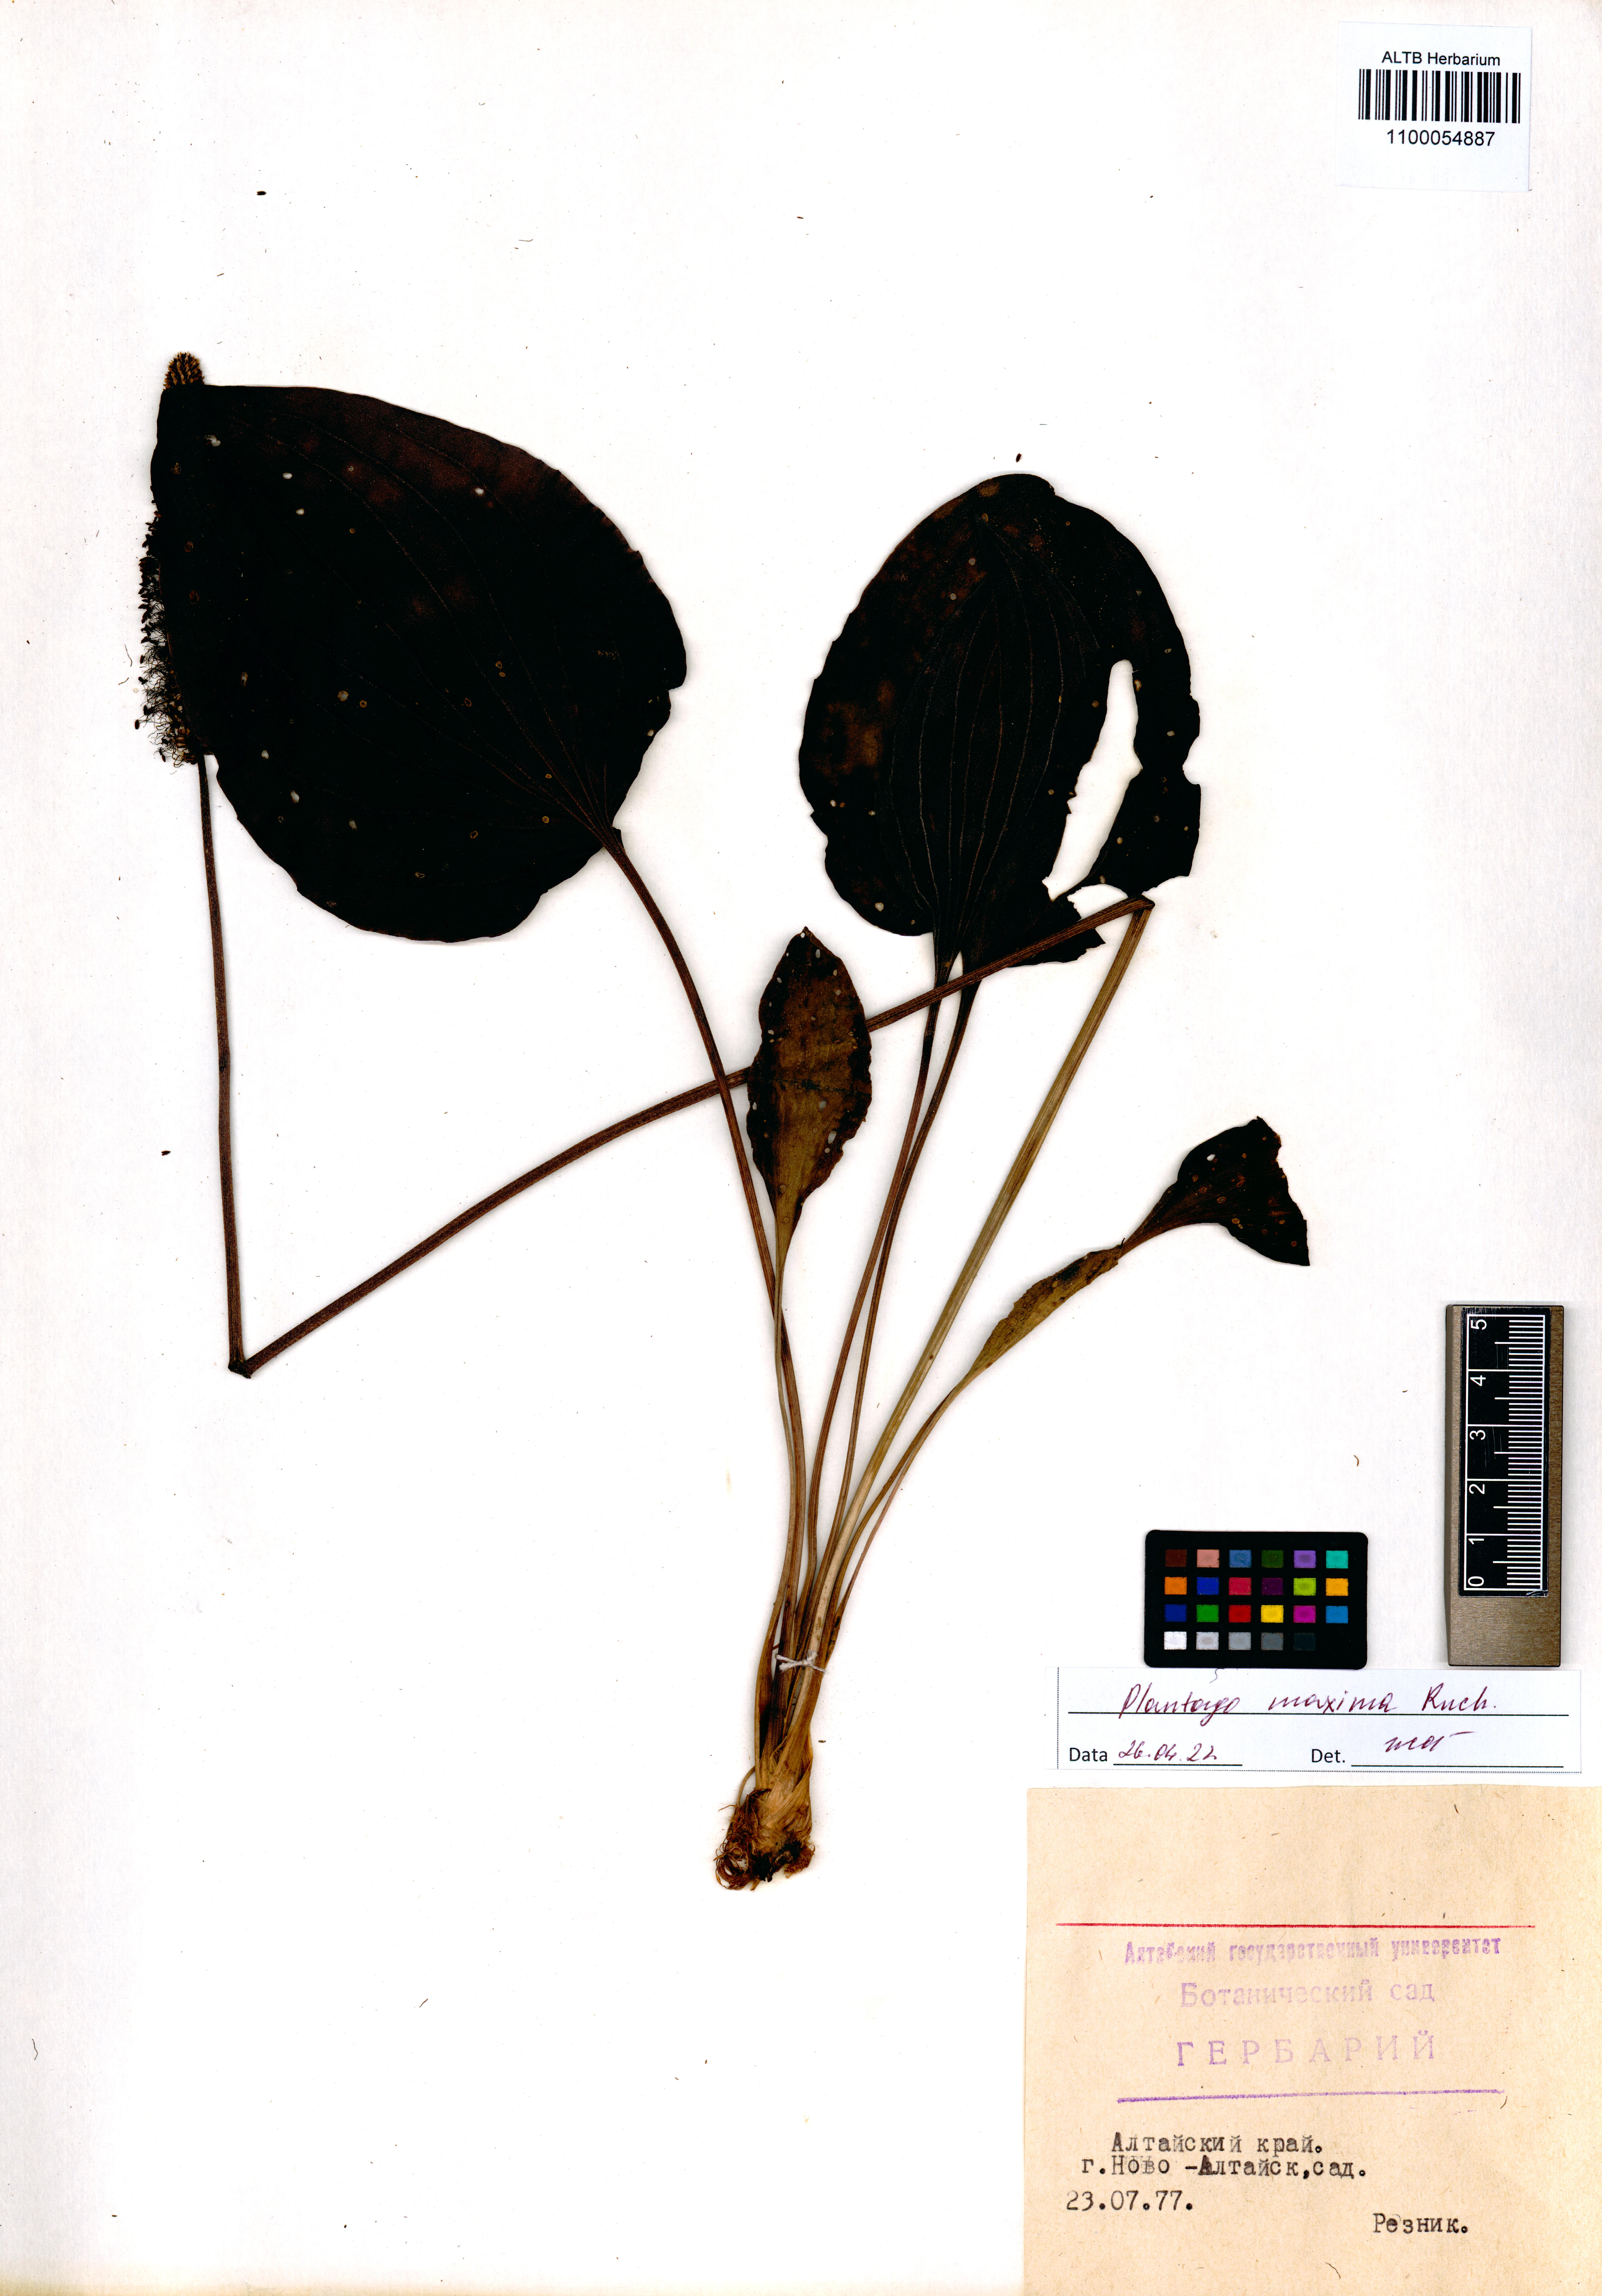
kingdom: Plantae
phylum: Tracheophyta
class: Magnoliopsida
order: Lamiales
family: Plantaginaceae
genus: Plantago
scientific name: Plantago maxima
